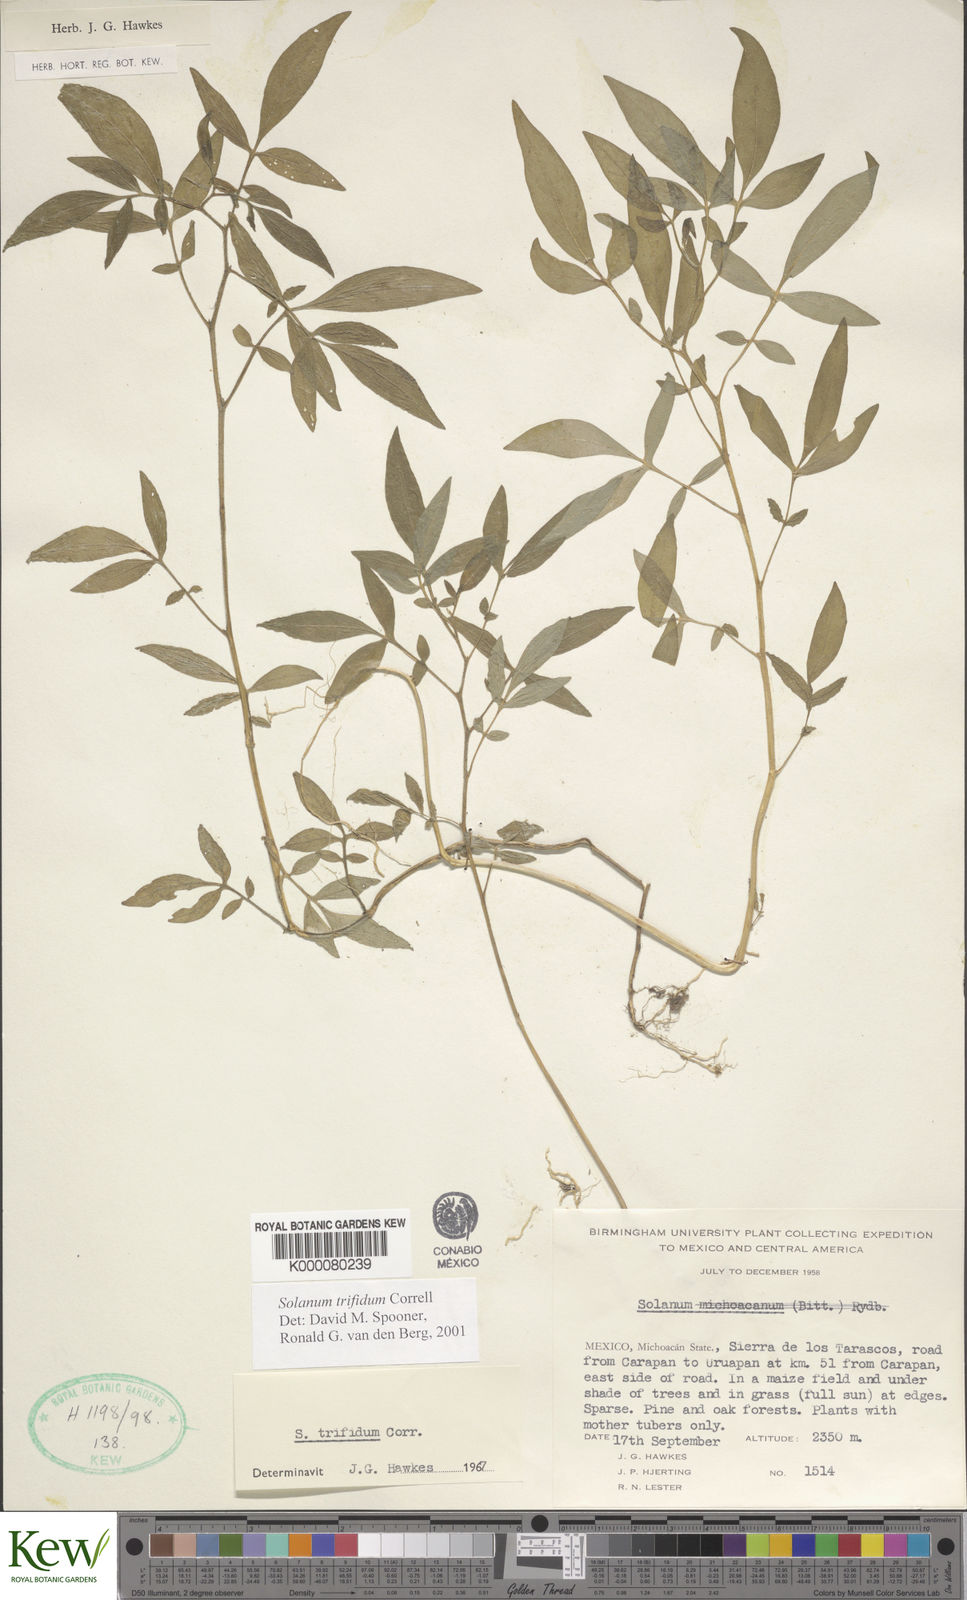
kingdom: Plantae
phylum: Tracheophyta
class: Magnoliopsida
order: Solanales
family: Solanaceae
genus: Solanum
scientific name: Solanum trifidum
